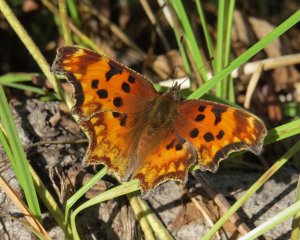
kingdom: Animalia
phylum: Arthropoda
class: Insecta
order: Lepidoptera
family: Nymphalidae
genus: Polygonia
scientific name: Polygonia gracilis
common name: Hoary Comma
